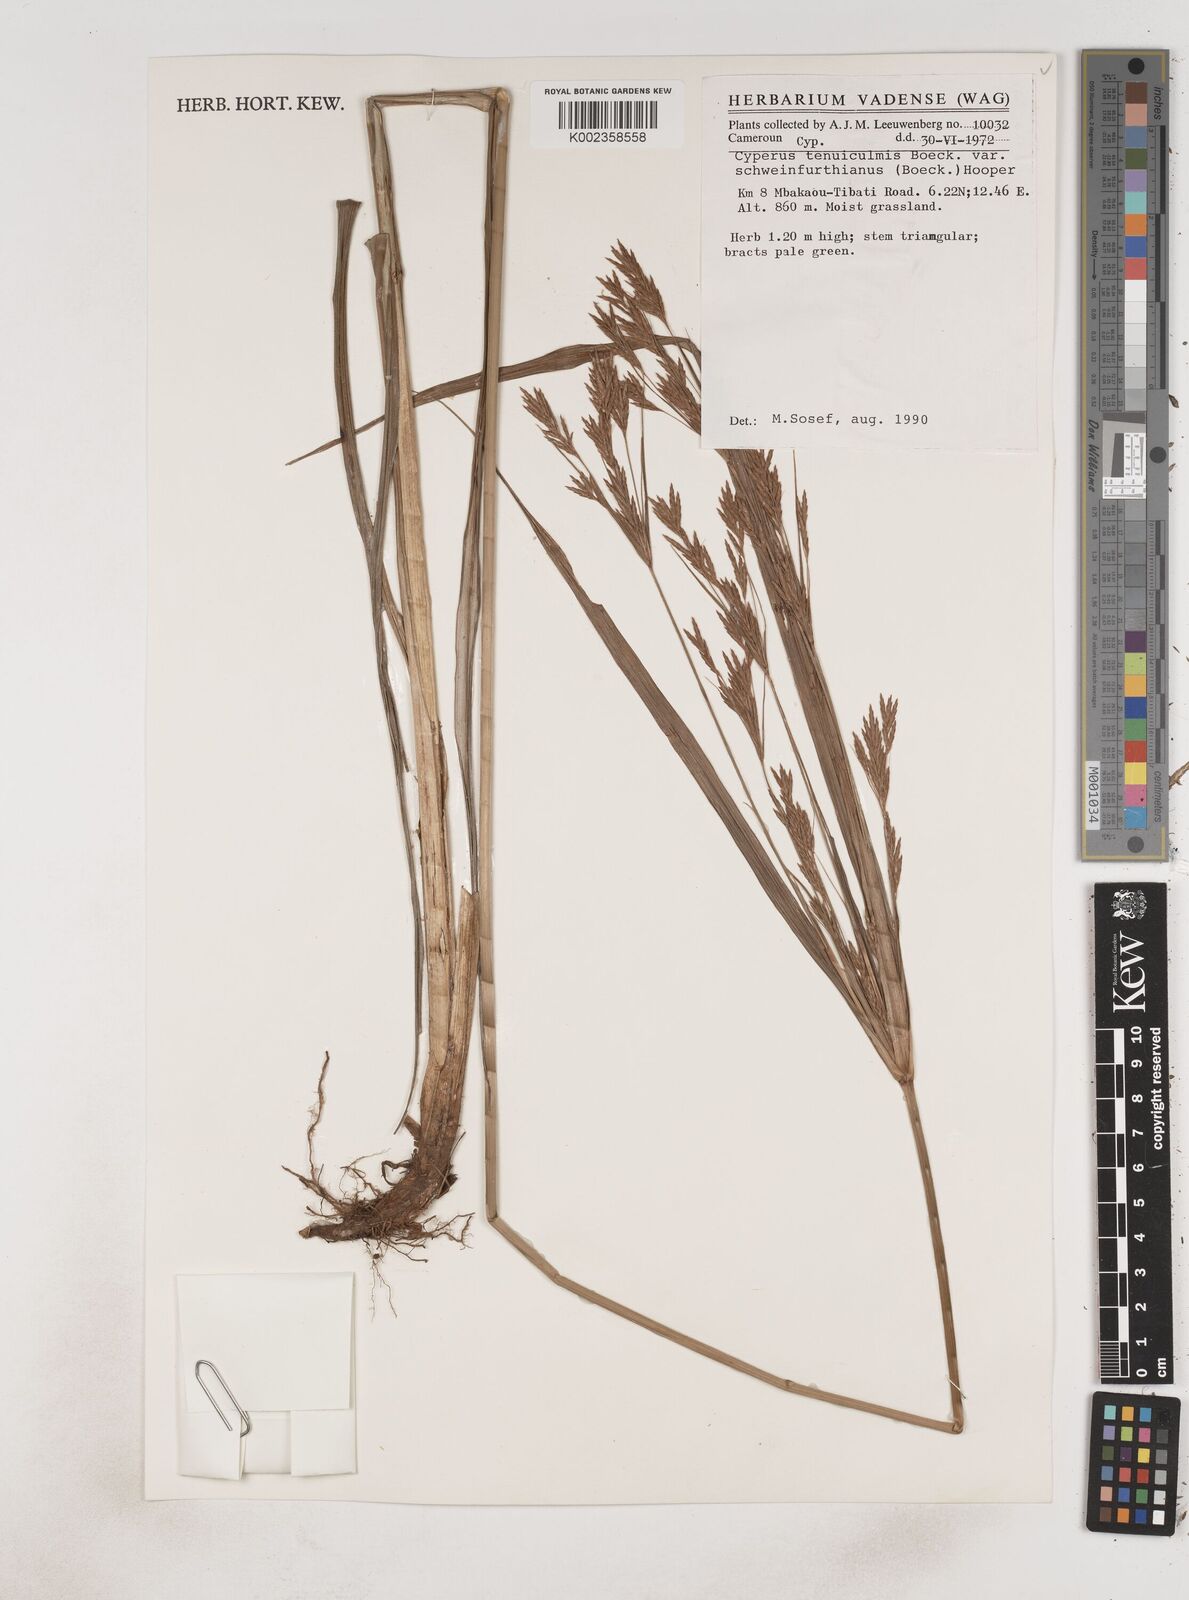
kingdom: Plantae
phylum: Tracheophyta
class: Liliopsida
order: Poales
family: Cyperaceae
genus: Cyperus
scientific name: Cyperus tenuiculmis
